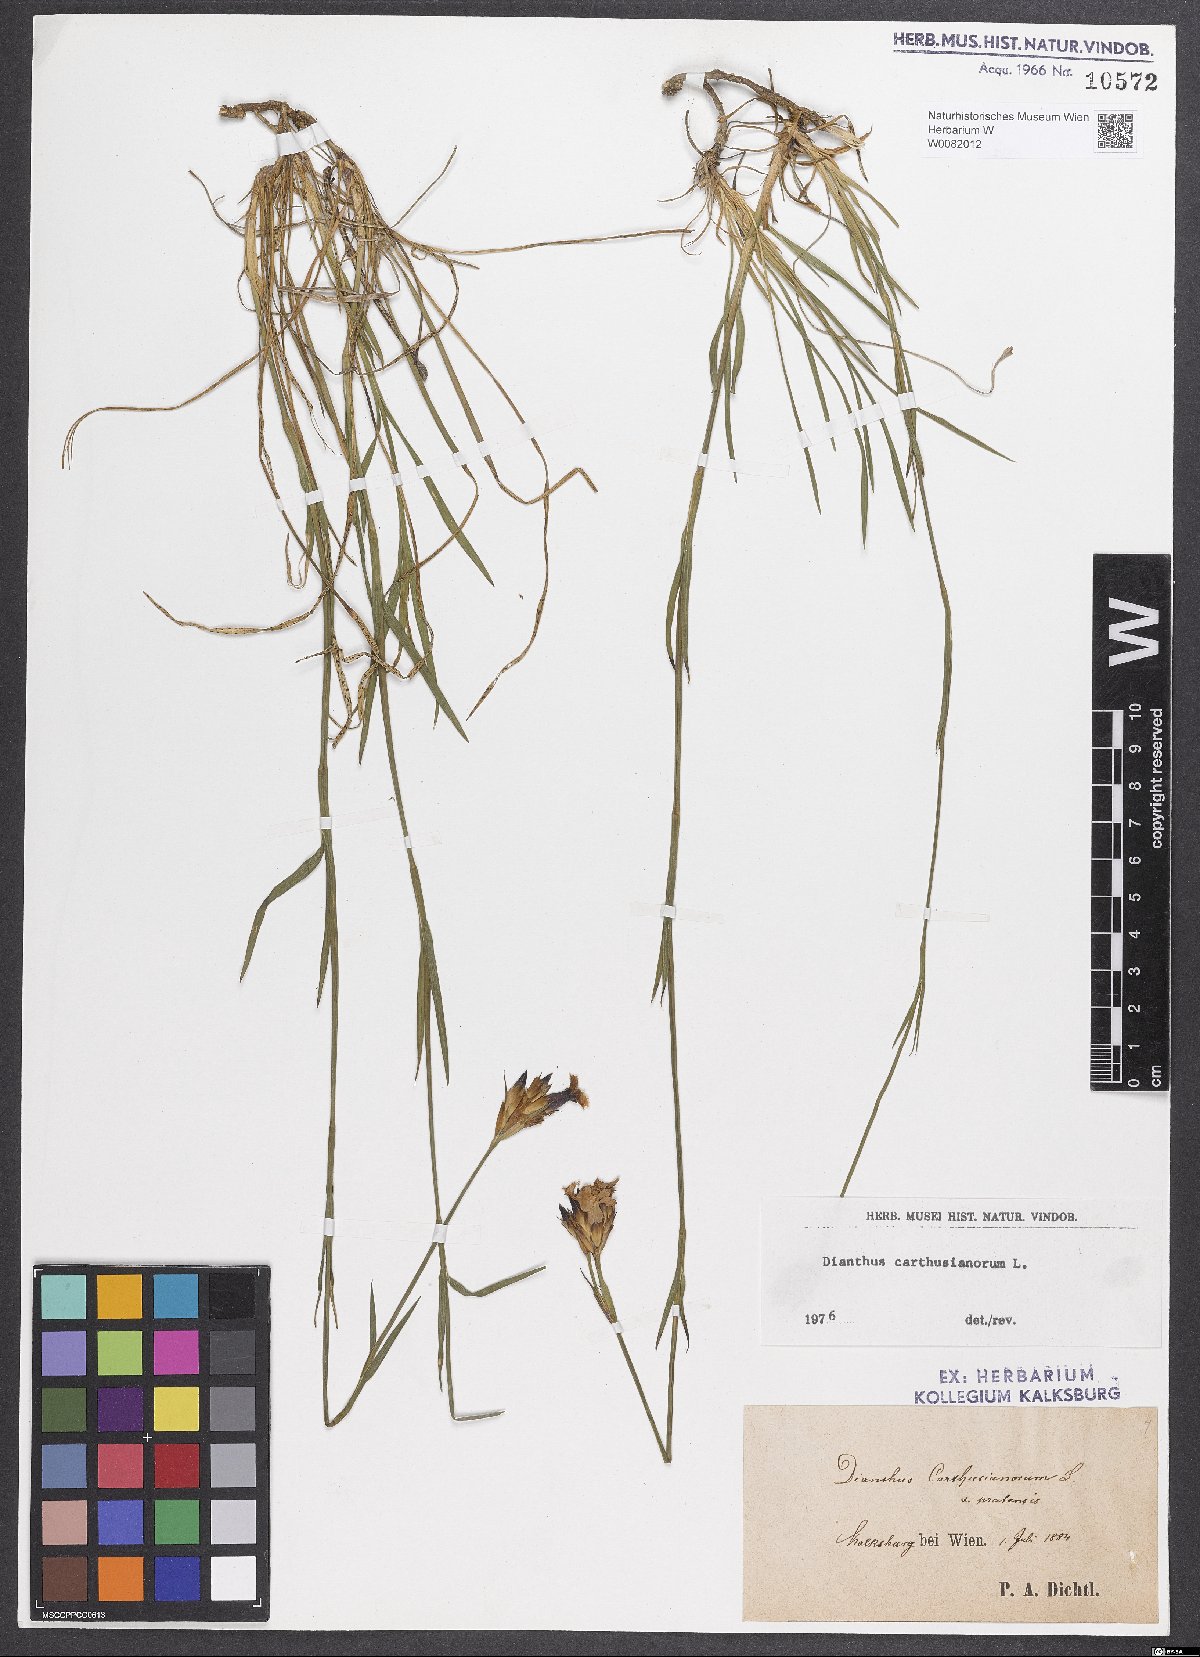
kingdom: Plantae
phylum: Tracheophyta
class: Magnoliopsida
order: Caryophyllales
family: Caryophyllaceae
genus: Dianthus
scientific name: Dianthus carthusianorum
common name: Carthusian pink
